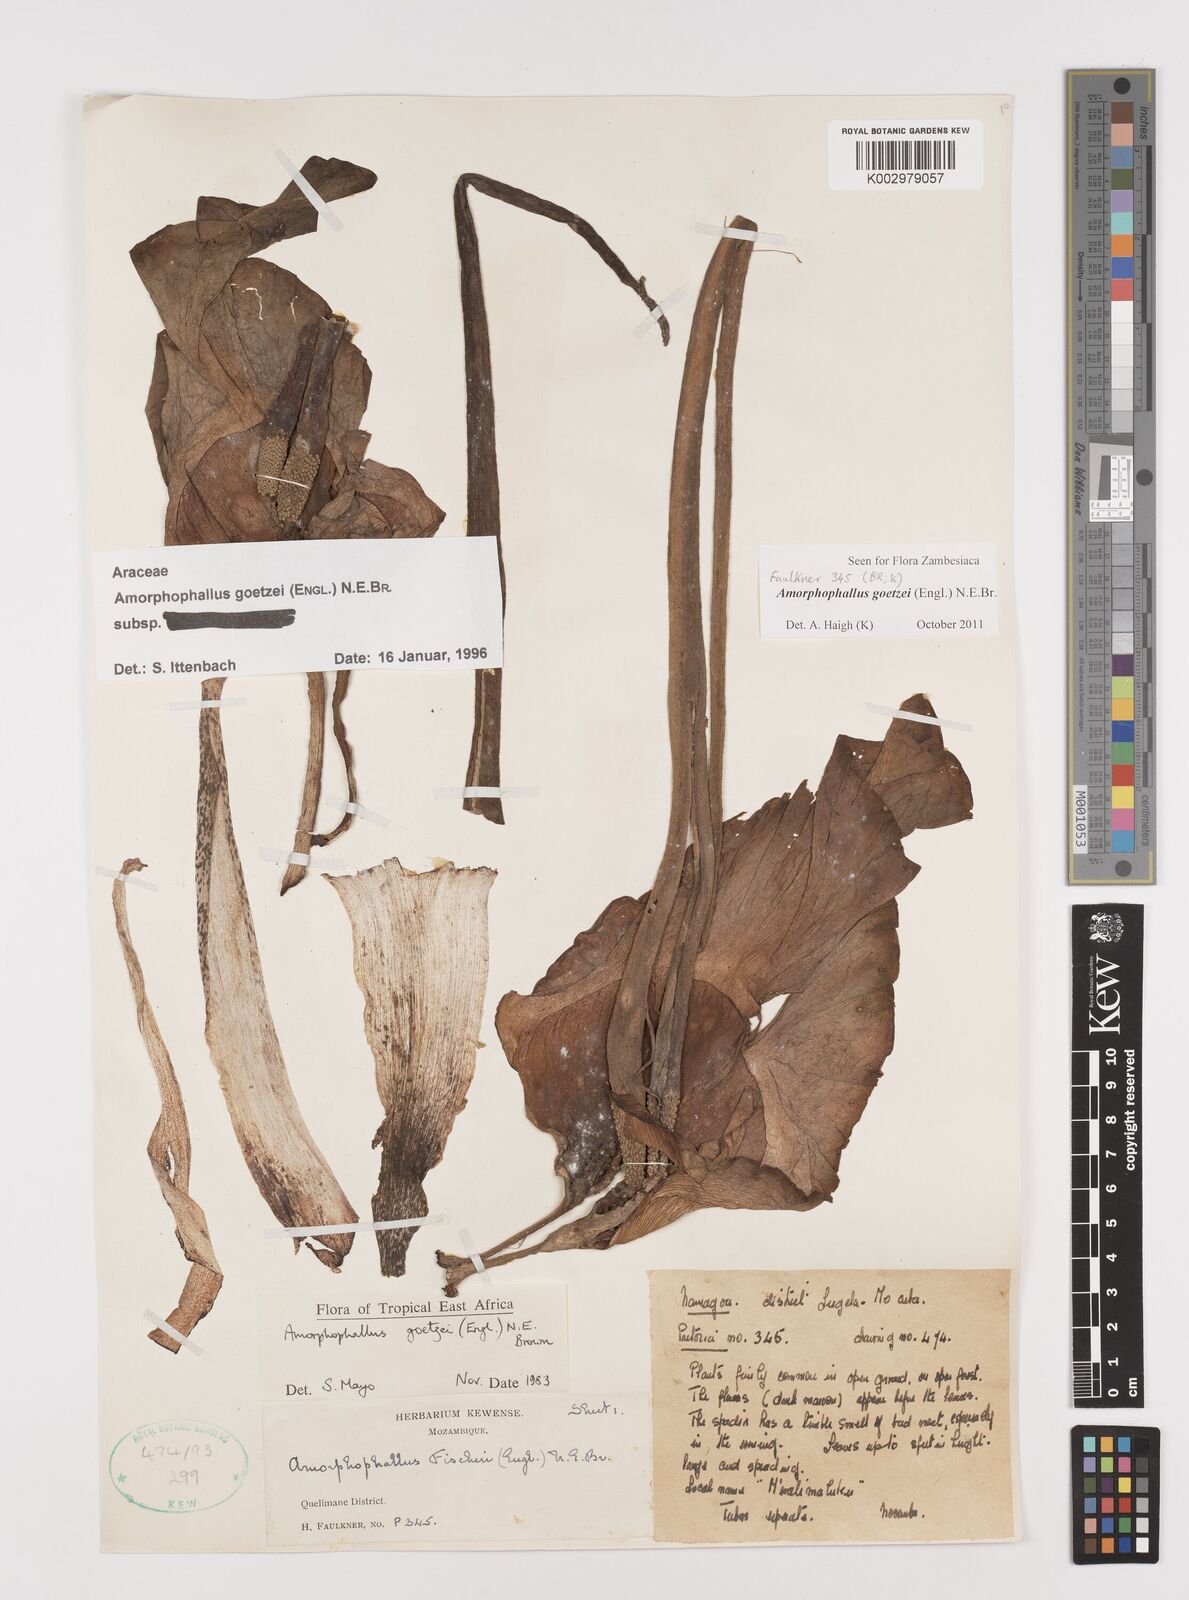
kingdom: Plantae
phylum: Tracheophyta
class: Liliopsida
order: Alismatales
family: Araceae
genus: Amorphophallus
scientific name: Amorphophallus goetzei
